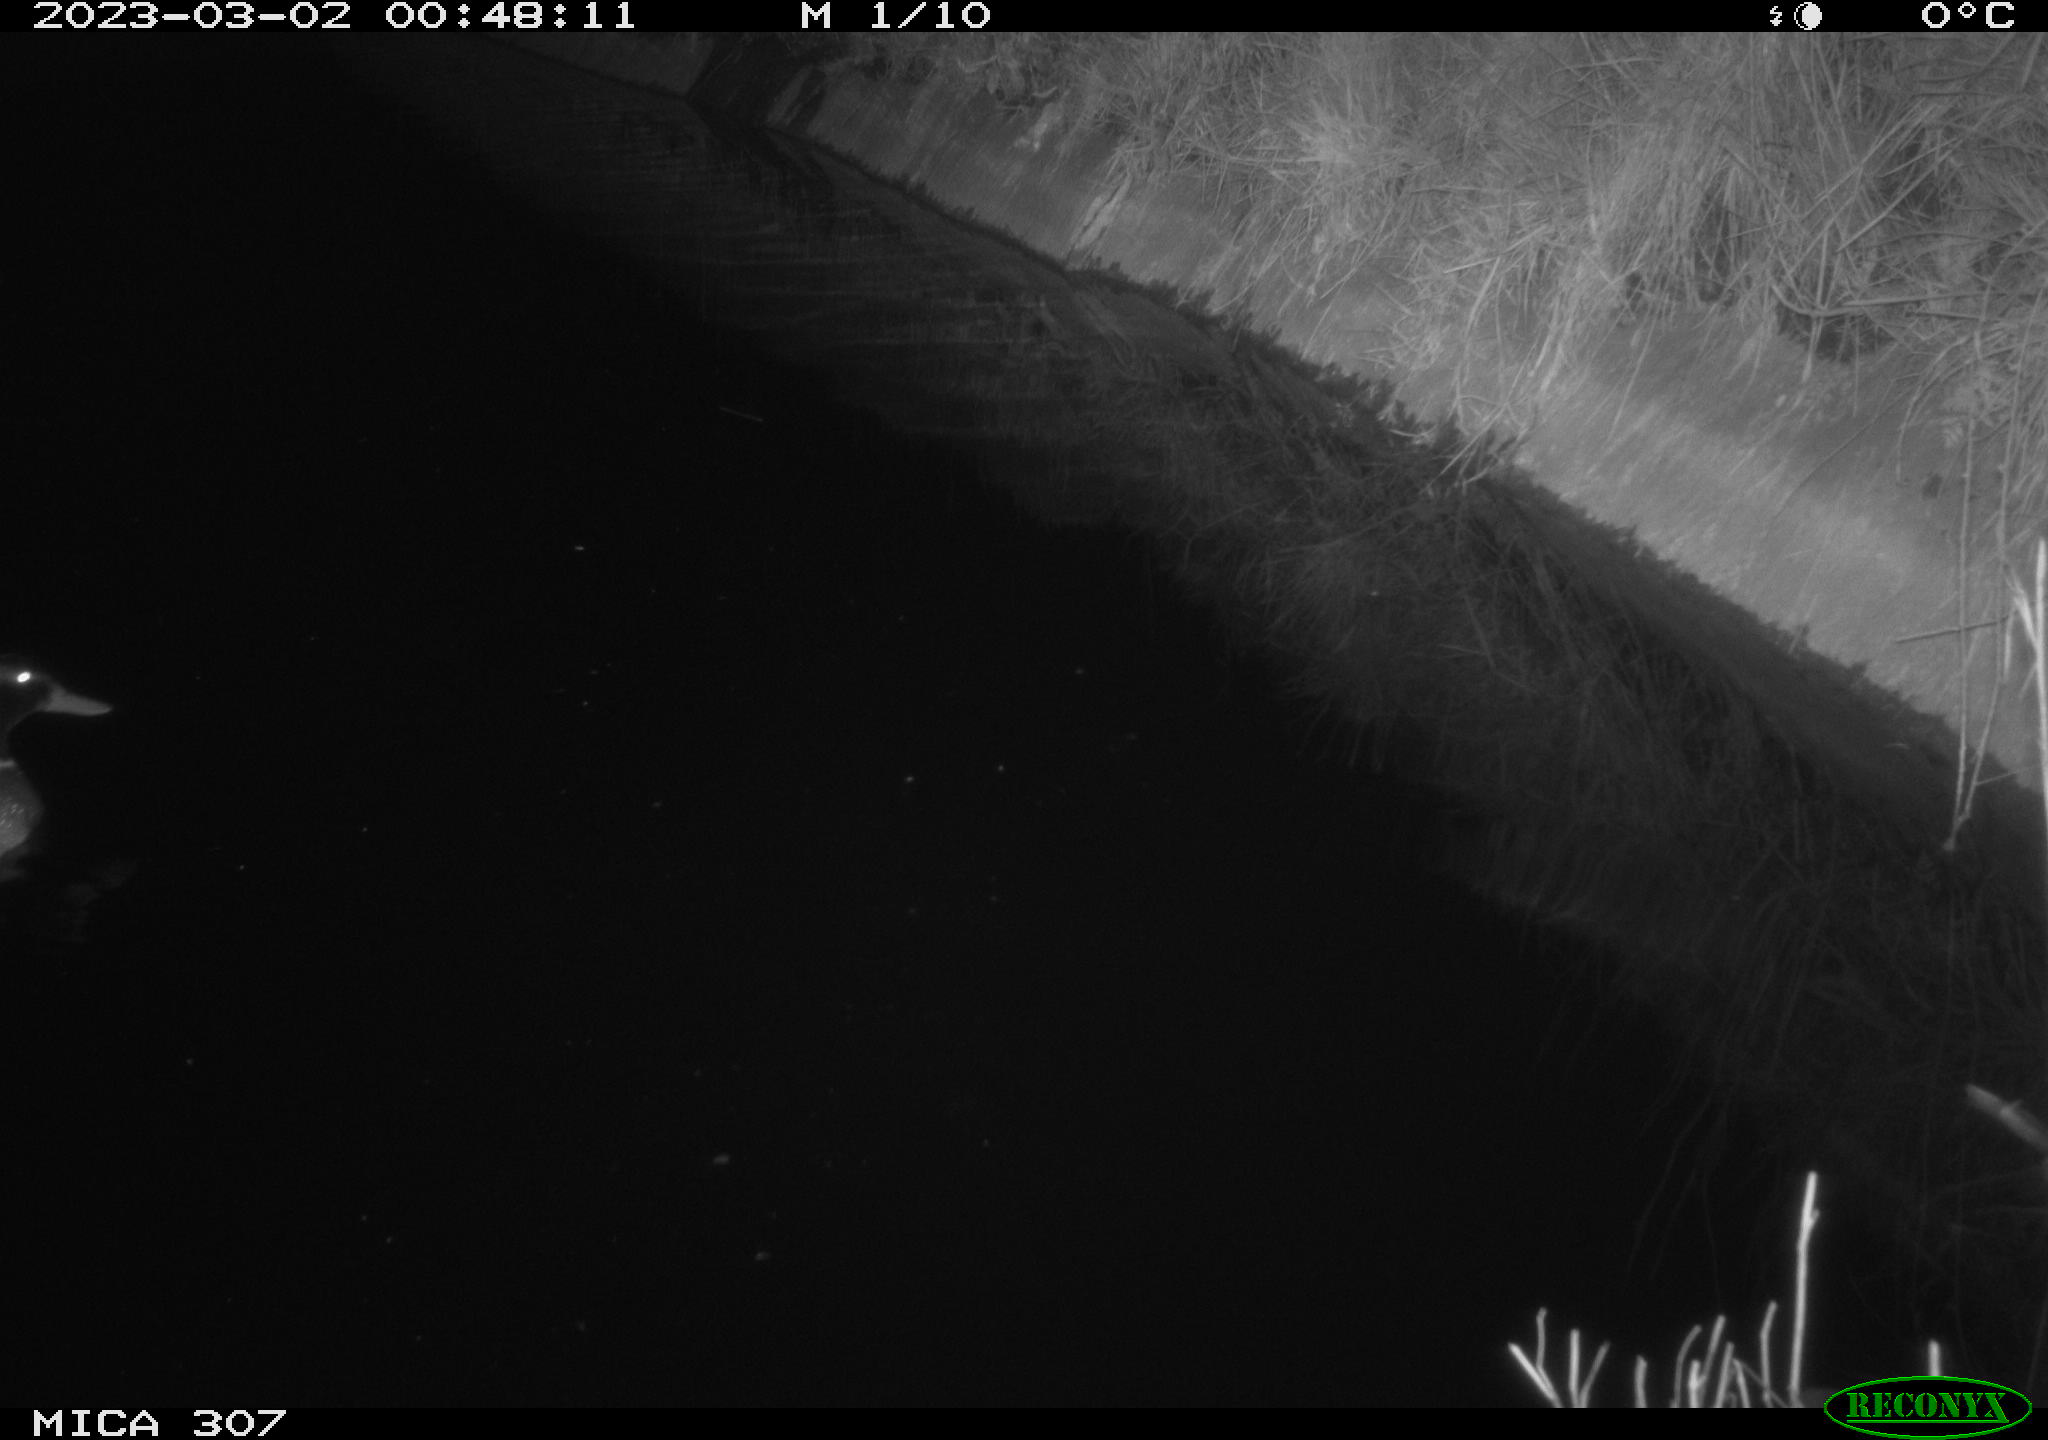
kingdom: Animalia
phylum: Chordata
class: Aves
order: Anseriformes
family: Anatidae
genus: Anas
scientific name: Anas
